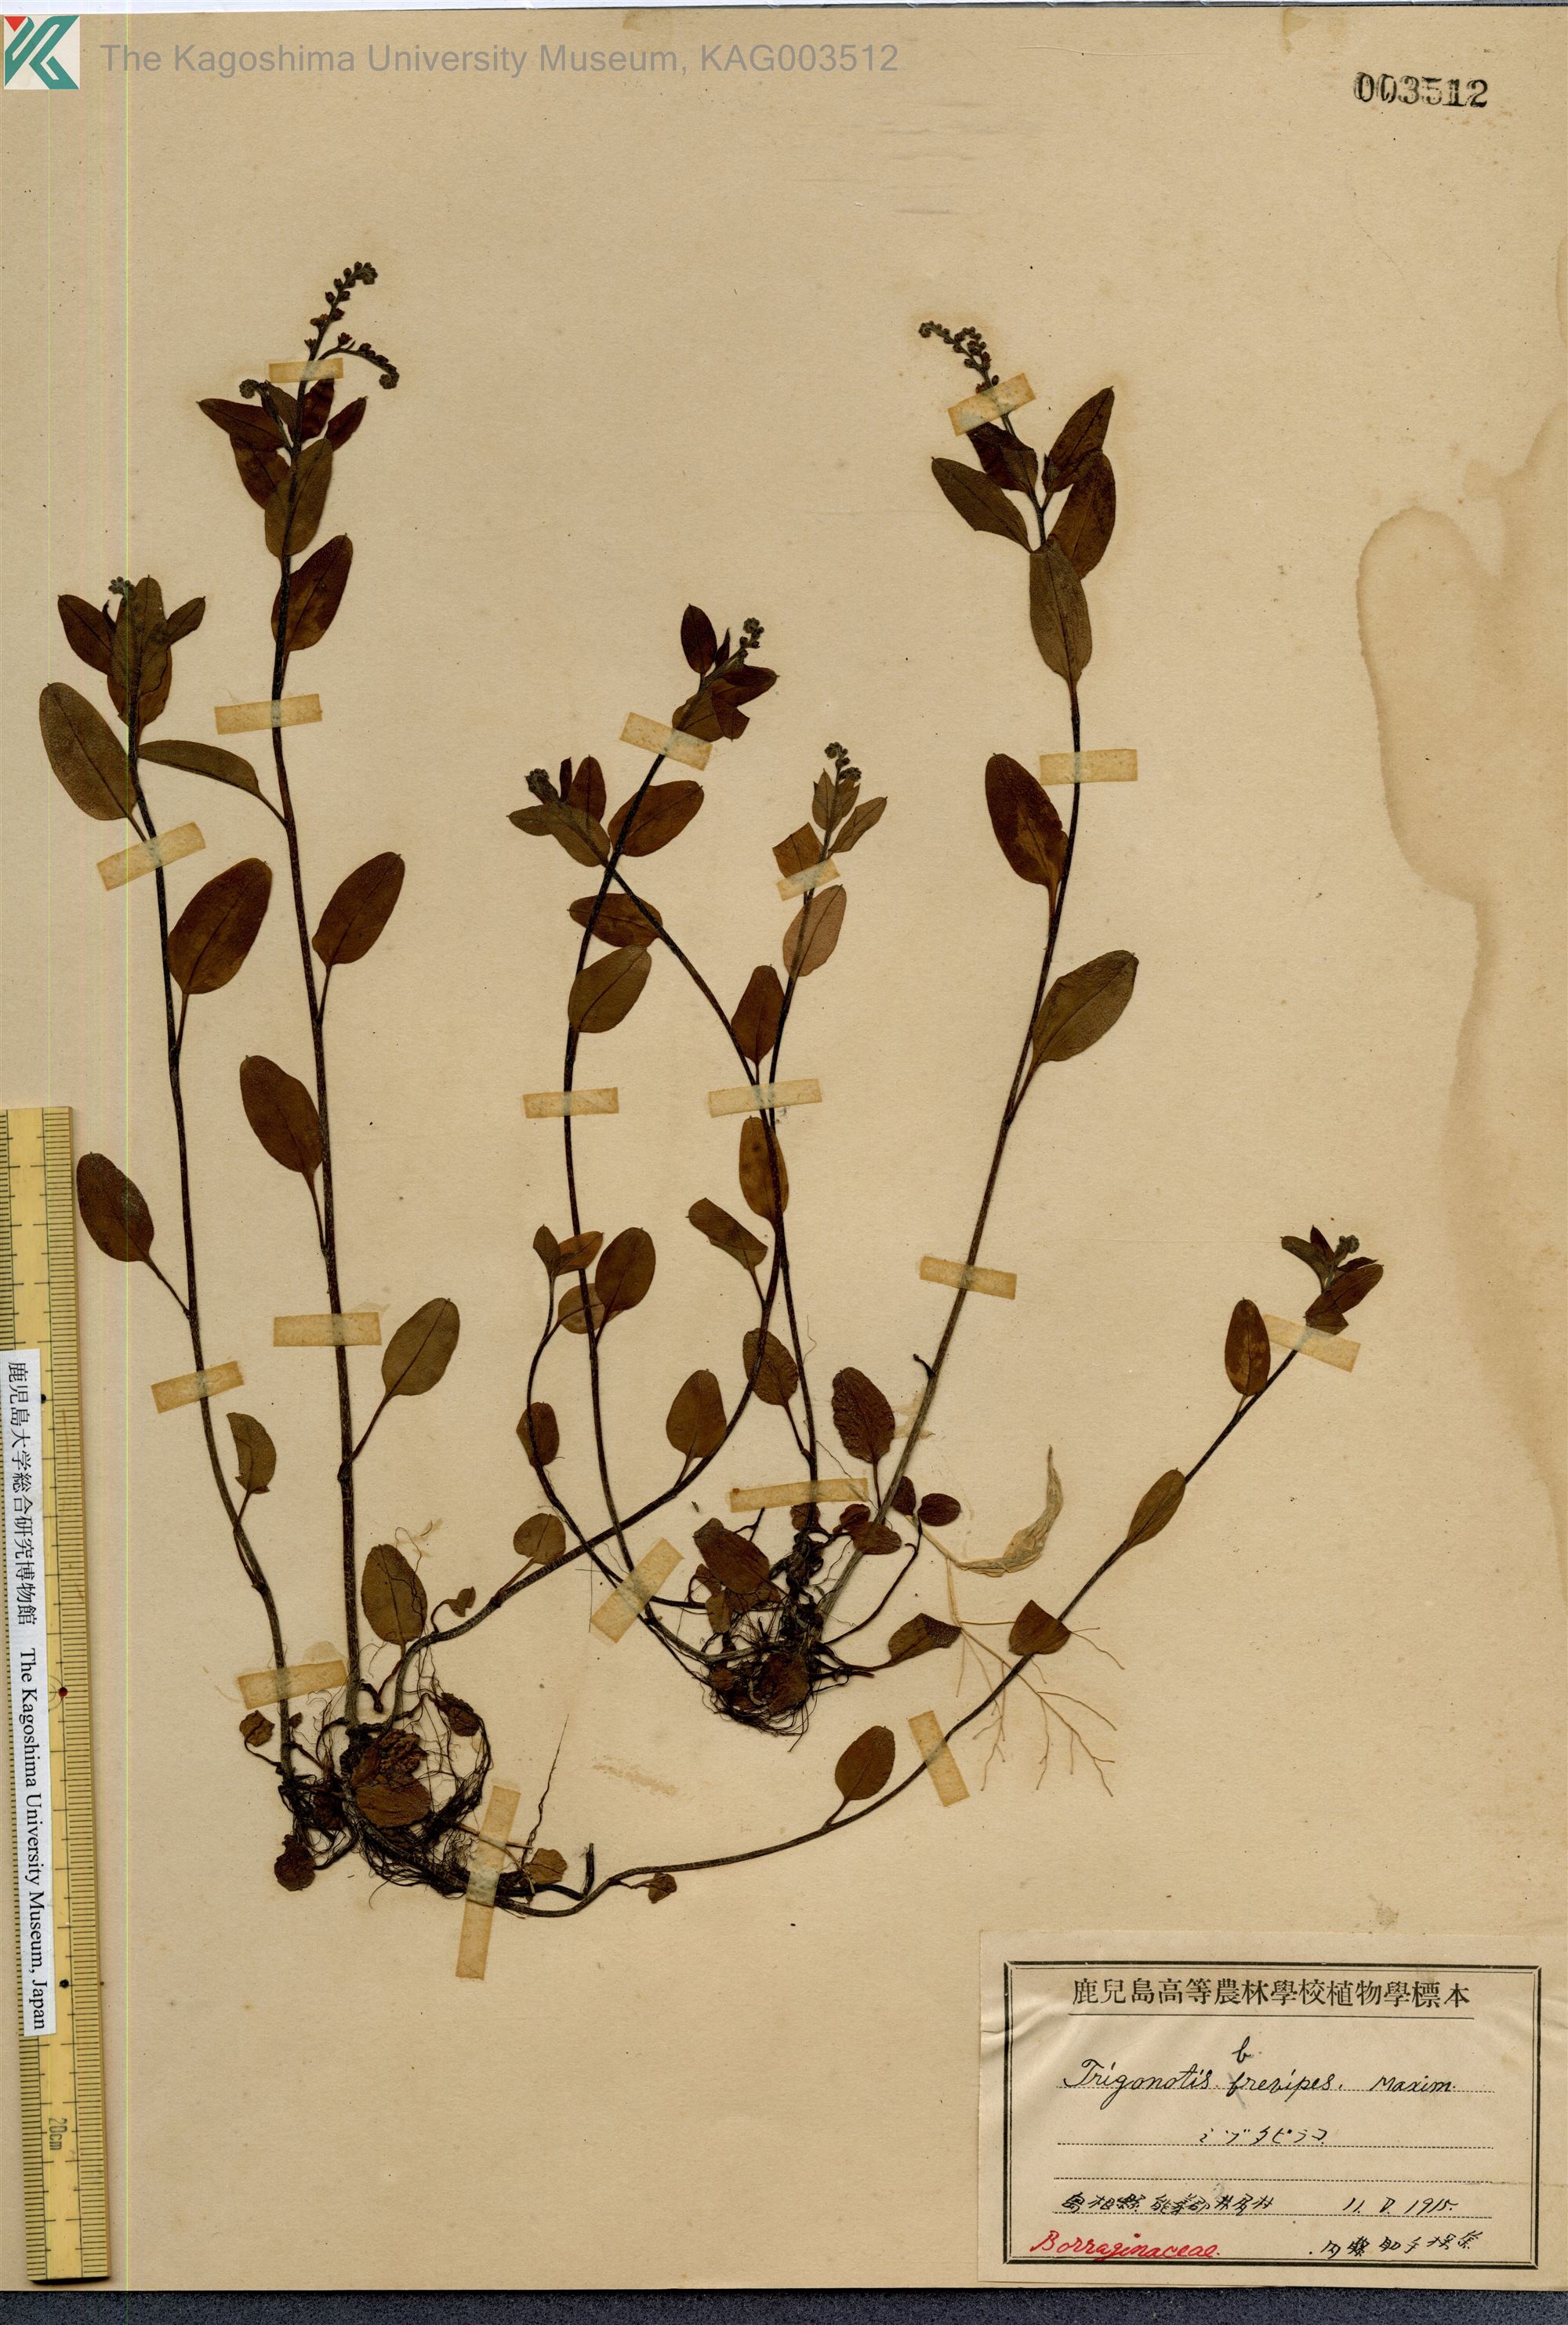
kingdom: Plantae
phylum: Tracheophyta
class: Magnoliopsida
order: Boraginales
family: Boraginaceae
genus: Trigonotis
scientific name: Trigonotis brevipes
